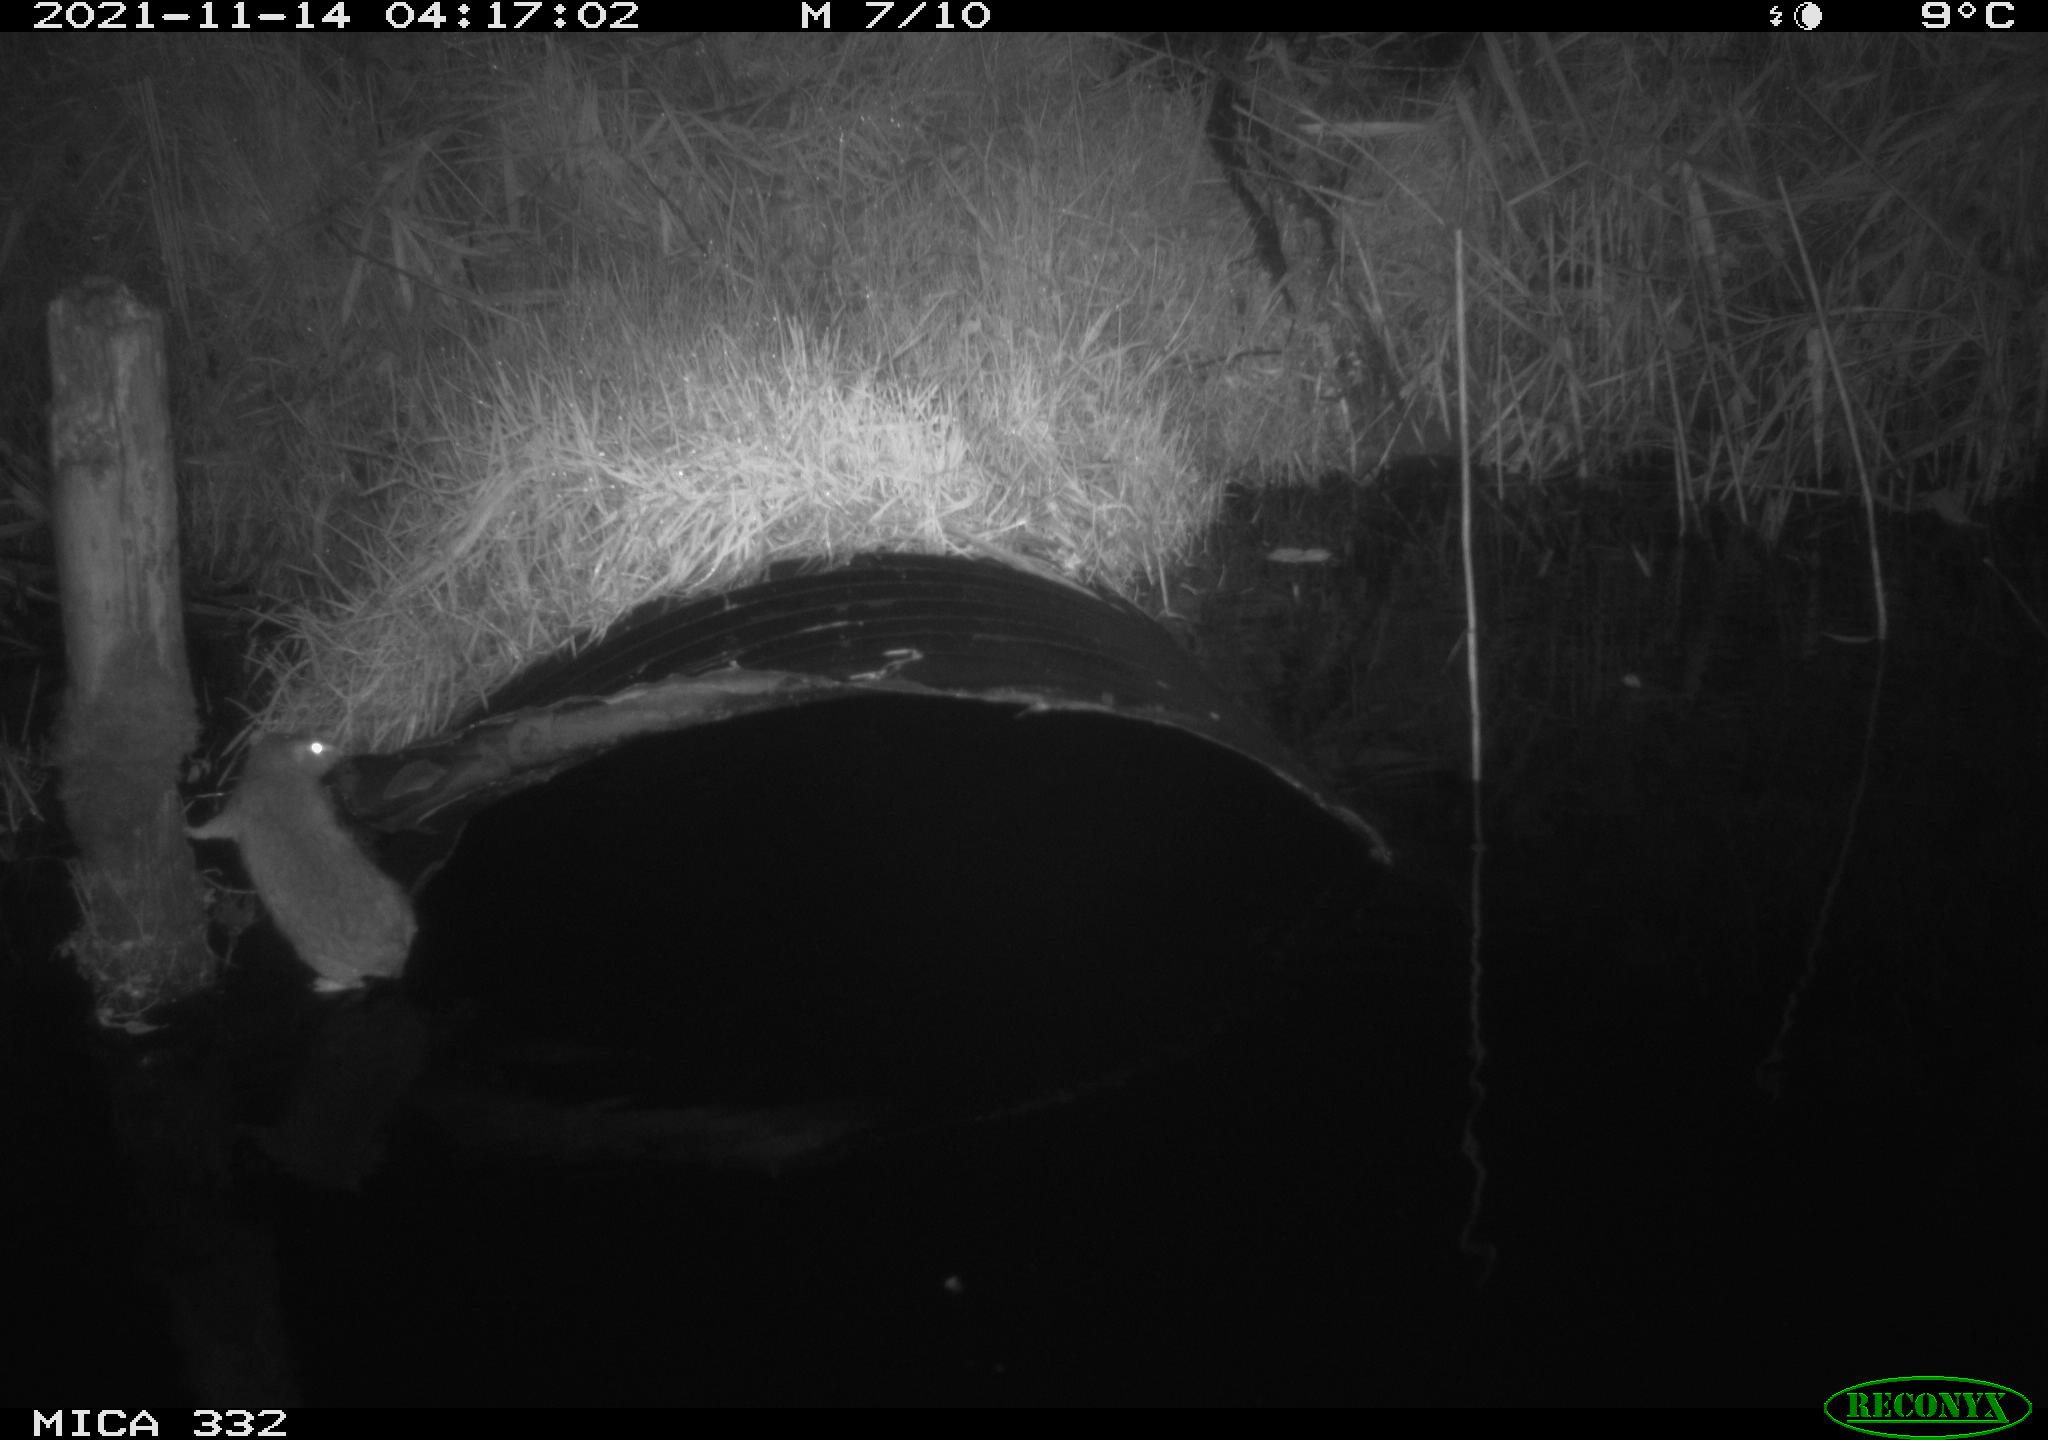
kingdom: Animalia
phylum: Chordata
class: Mammalia
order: Rodentia
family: Muridae
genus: Rattus
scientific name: Rattus norvegicus
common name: Brown rat
